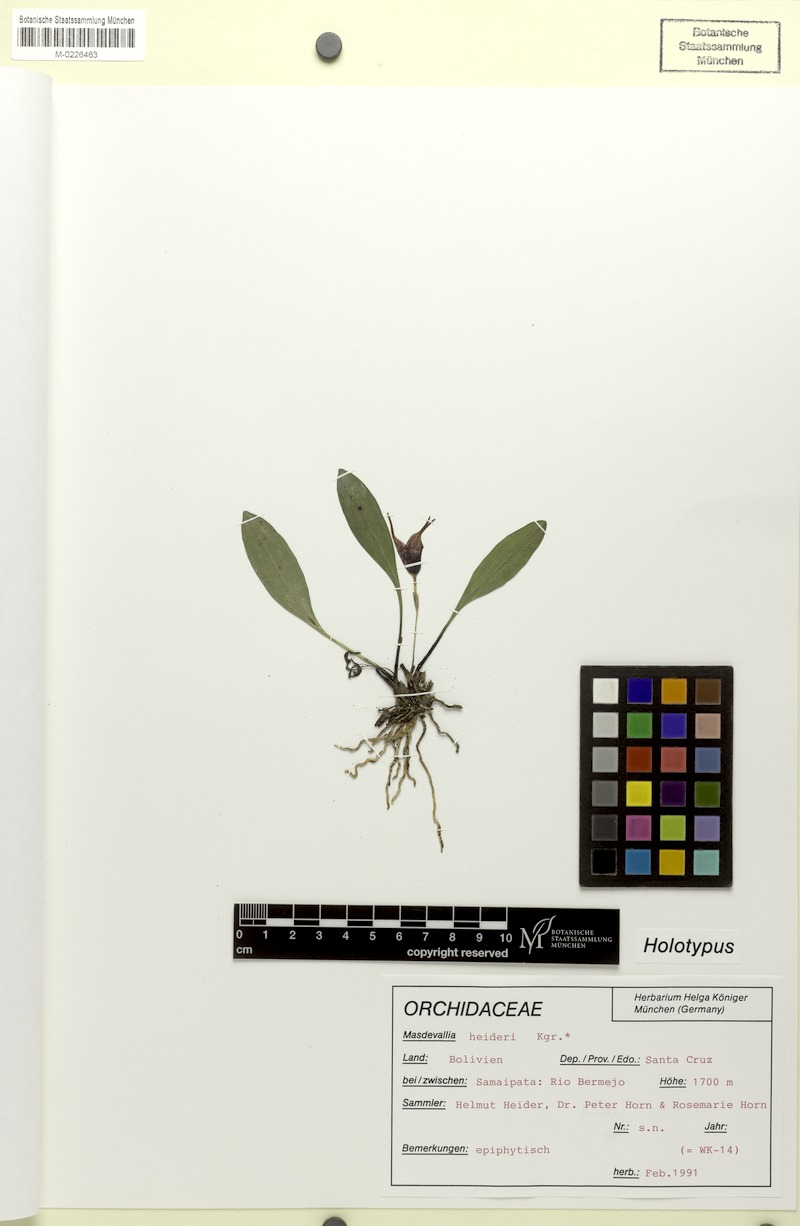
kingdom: Plantae
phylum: Tracheophyta
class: Liliopsida
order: Asparagales
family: Orchidaceae
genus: Masdevallia
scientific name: Masdevallia heideri
